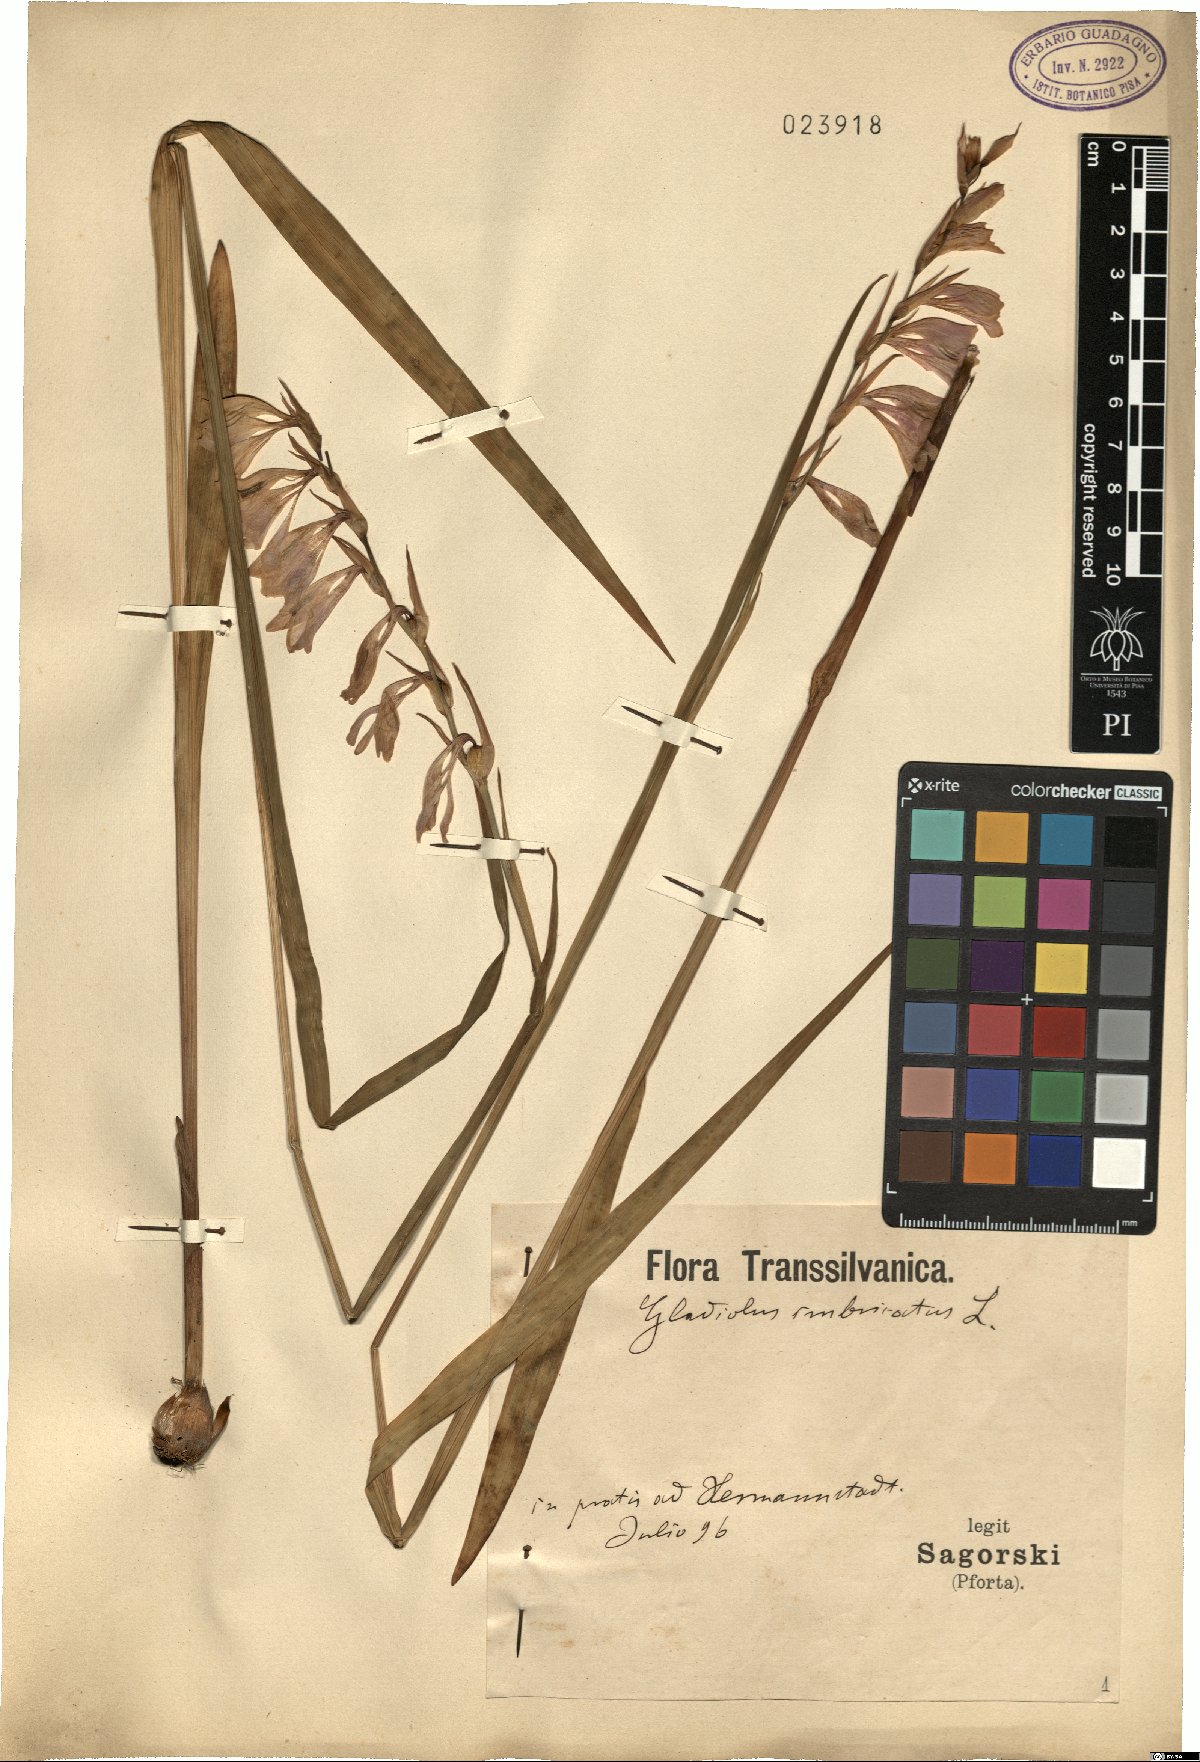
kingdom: Plantae
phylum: Tracheophyta
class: Liliopsida
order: Asparagales
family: Iridaceae
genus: Gladiolus
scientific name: Gladiolus imbricatus
